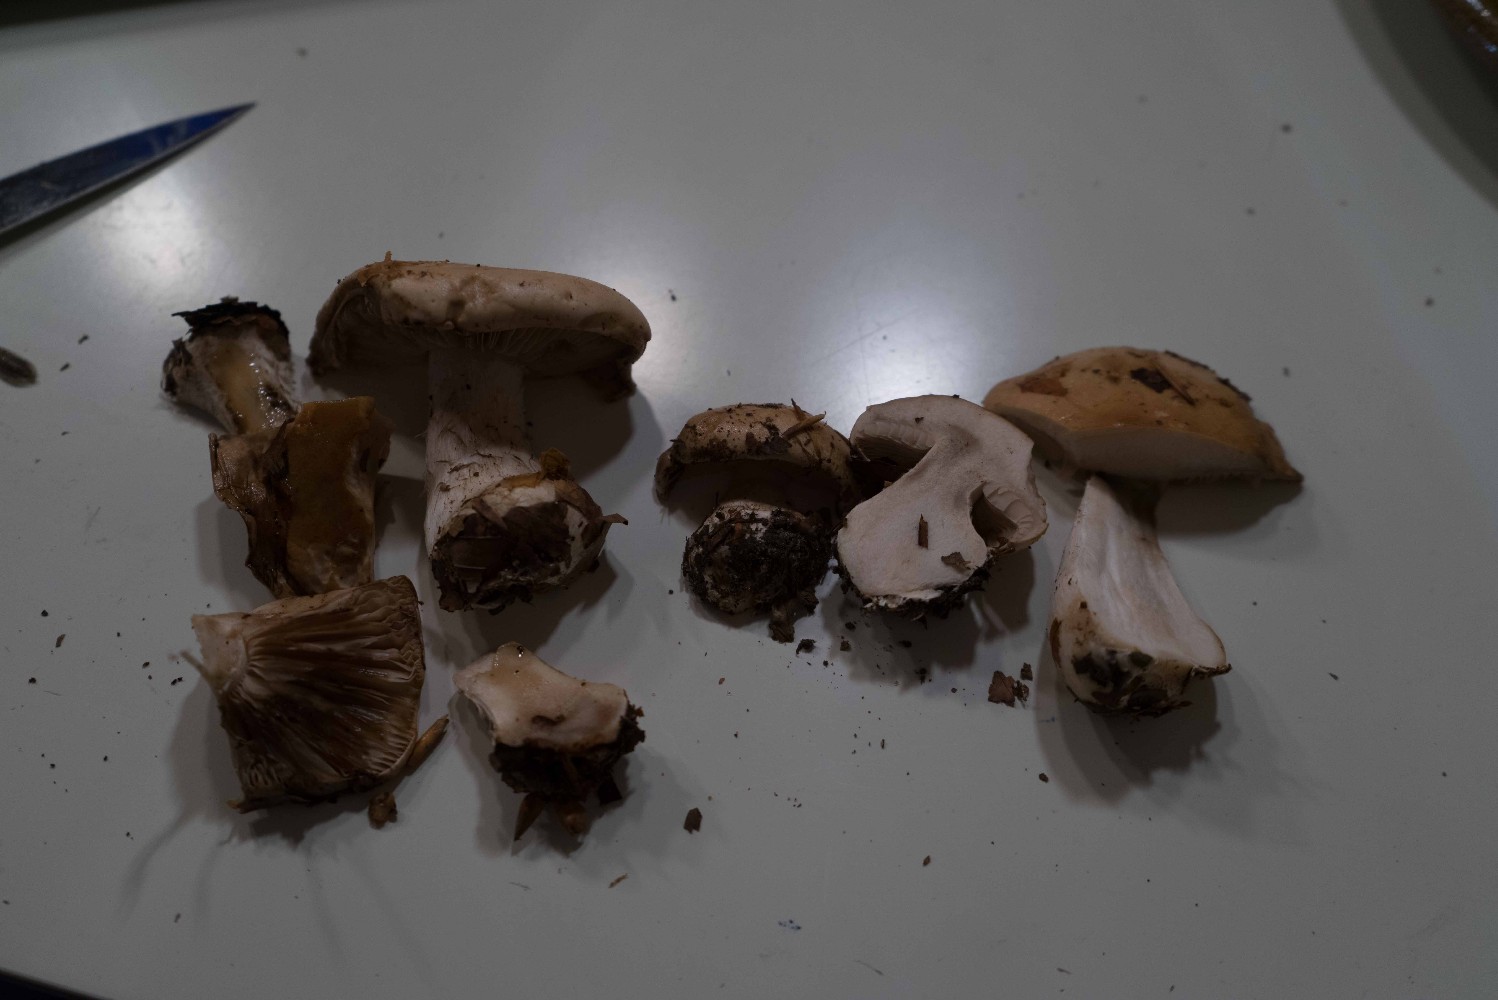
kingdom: Fungi
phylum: Basidiomycota
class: Agaricomycetes
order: Agaricales
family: Hymenogastraceae
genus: Hebeloma
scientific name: Hebeloma sinapizans
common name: ræddike-tåreblad
